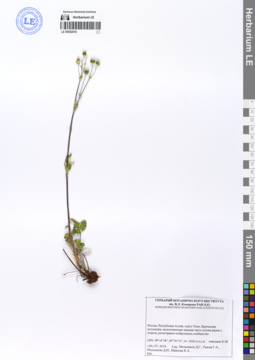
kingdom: Plantae
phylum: Tracheophyta
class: Magnoliopsida
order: Rosales
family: Rosaceae
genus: Potentilla
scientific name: Potentilla
